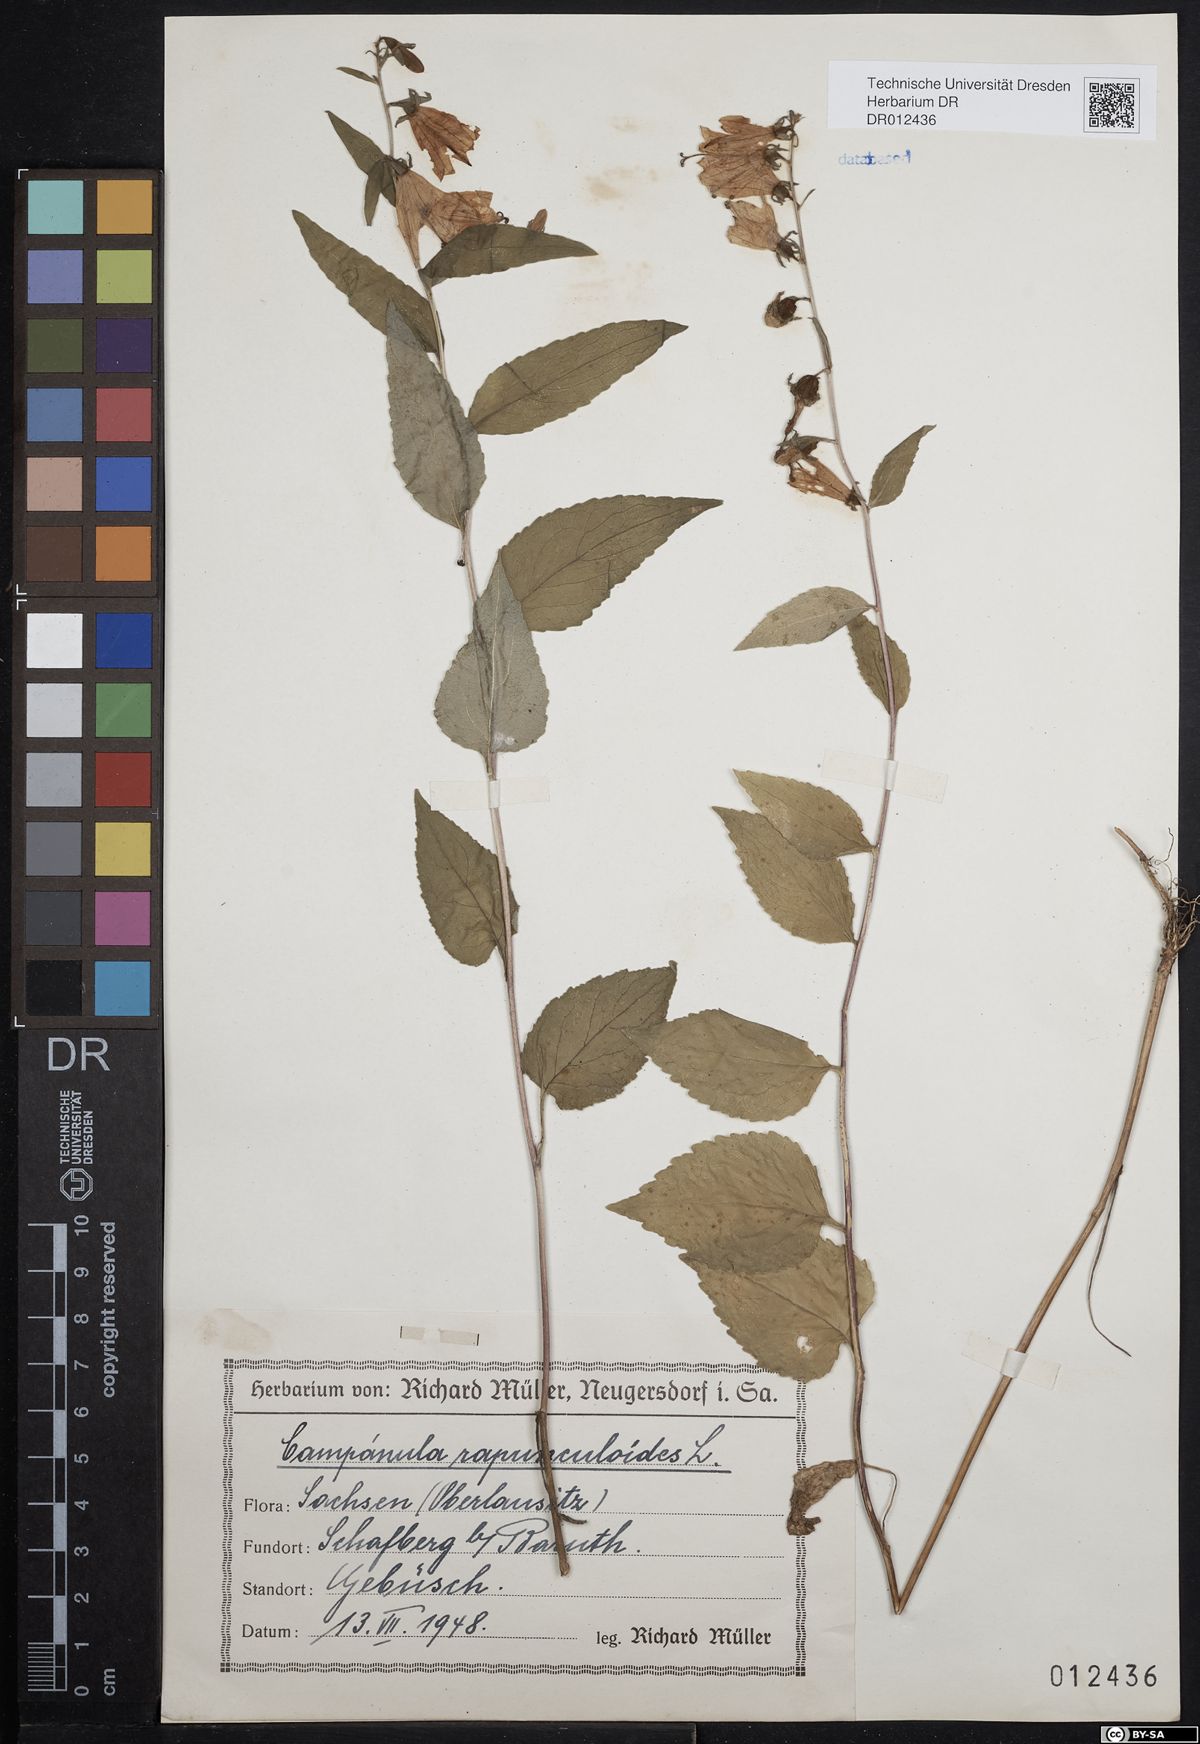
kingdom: Plantae
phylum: Tracheophyta
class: Magnoliopsida
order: Asterales
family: Campanulaceae
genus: Campanula
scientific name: Campanula rapunculoides
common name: Creeping bellflower
